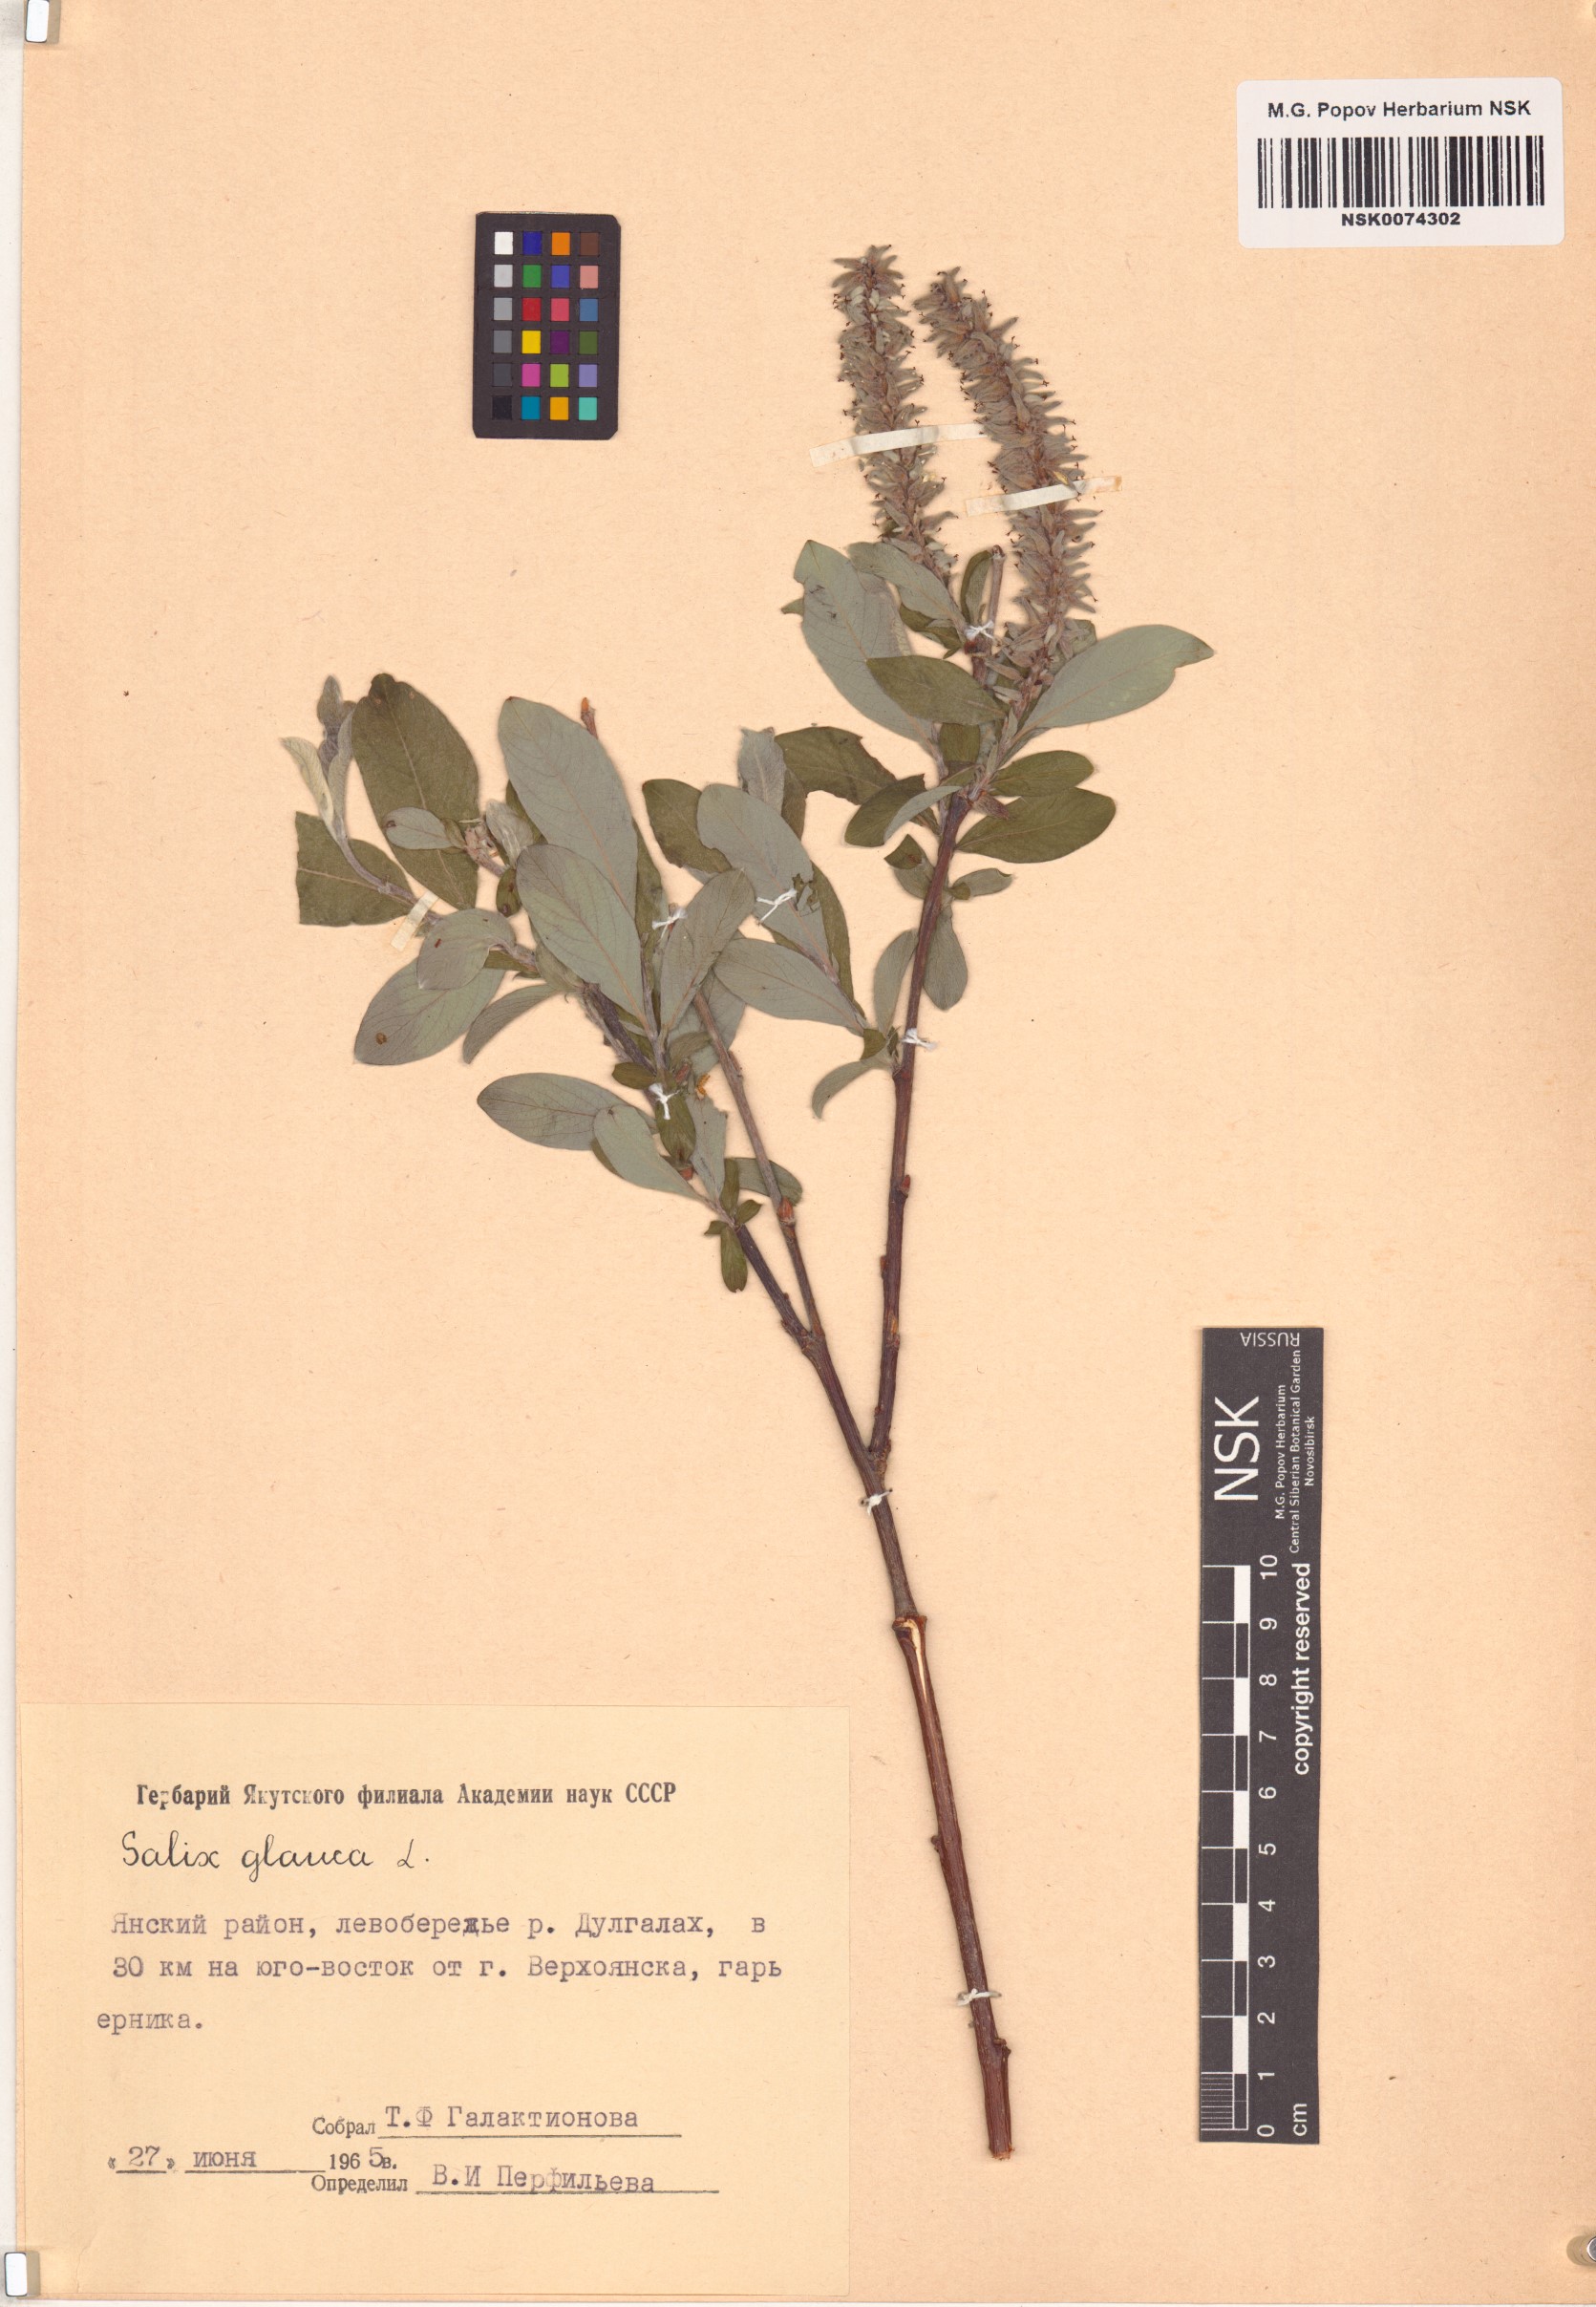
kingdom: Plantae
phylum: Tracheophyta
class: Magnoliopsida
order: Malpighiales
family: Salicaceae
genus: Salix
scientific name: Salix glauca
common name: Glaucous willow
